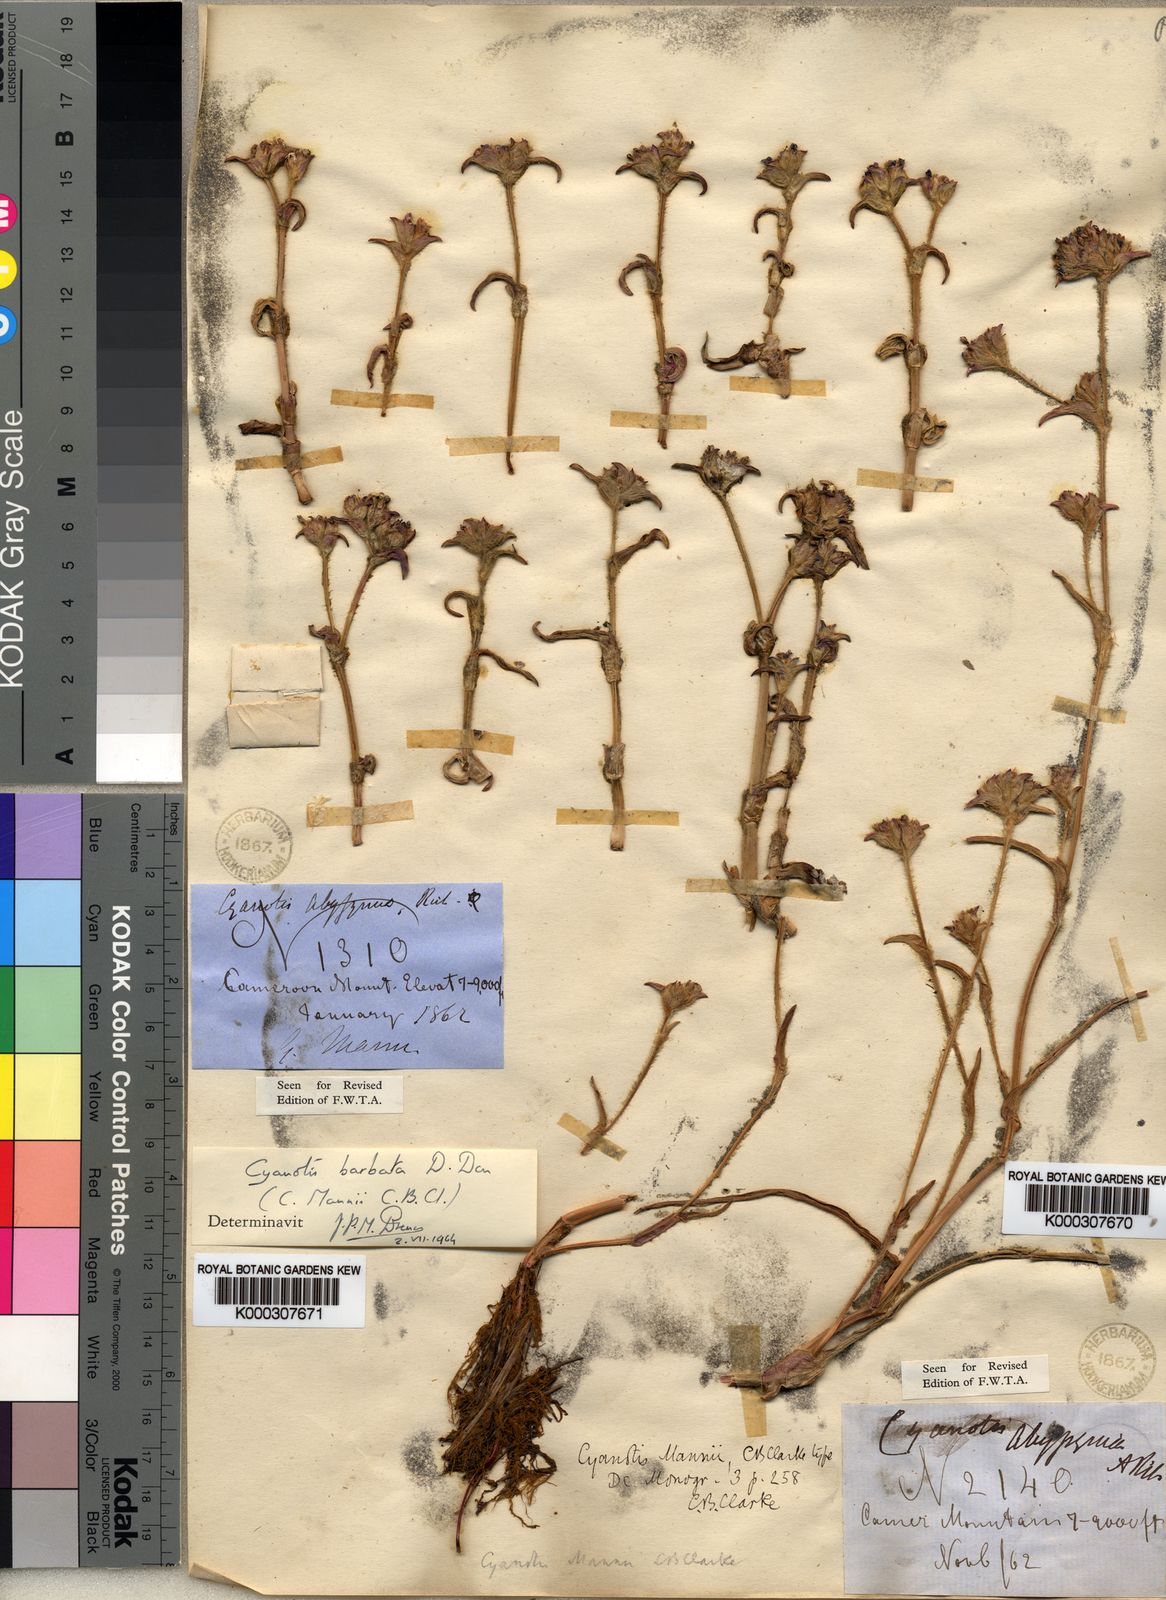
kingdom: Plantae
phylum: Tracheophyta
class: Liliopsida
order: Commelinales
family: Commelinaceae
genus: Cyanotis
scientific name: Cyanotis vaga
